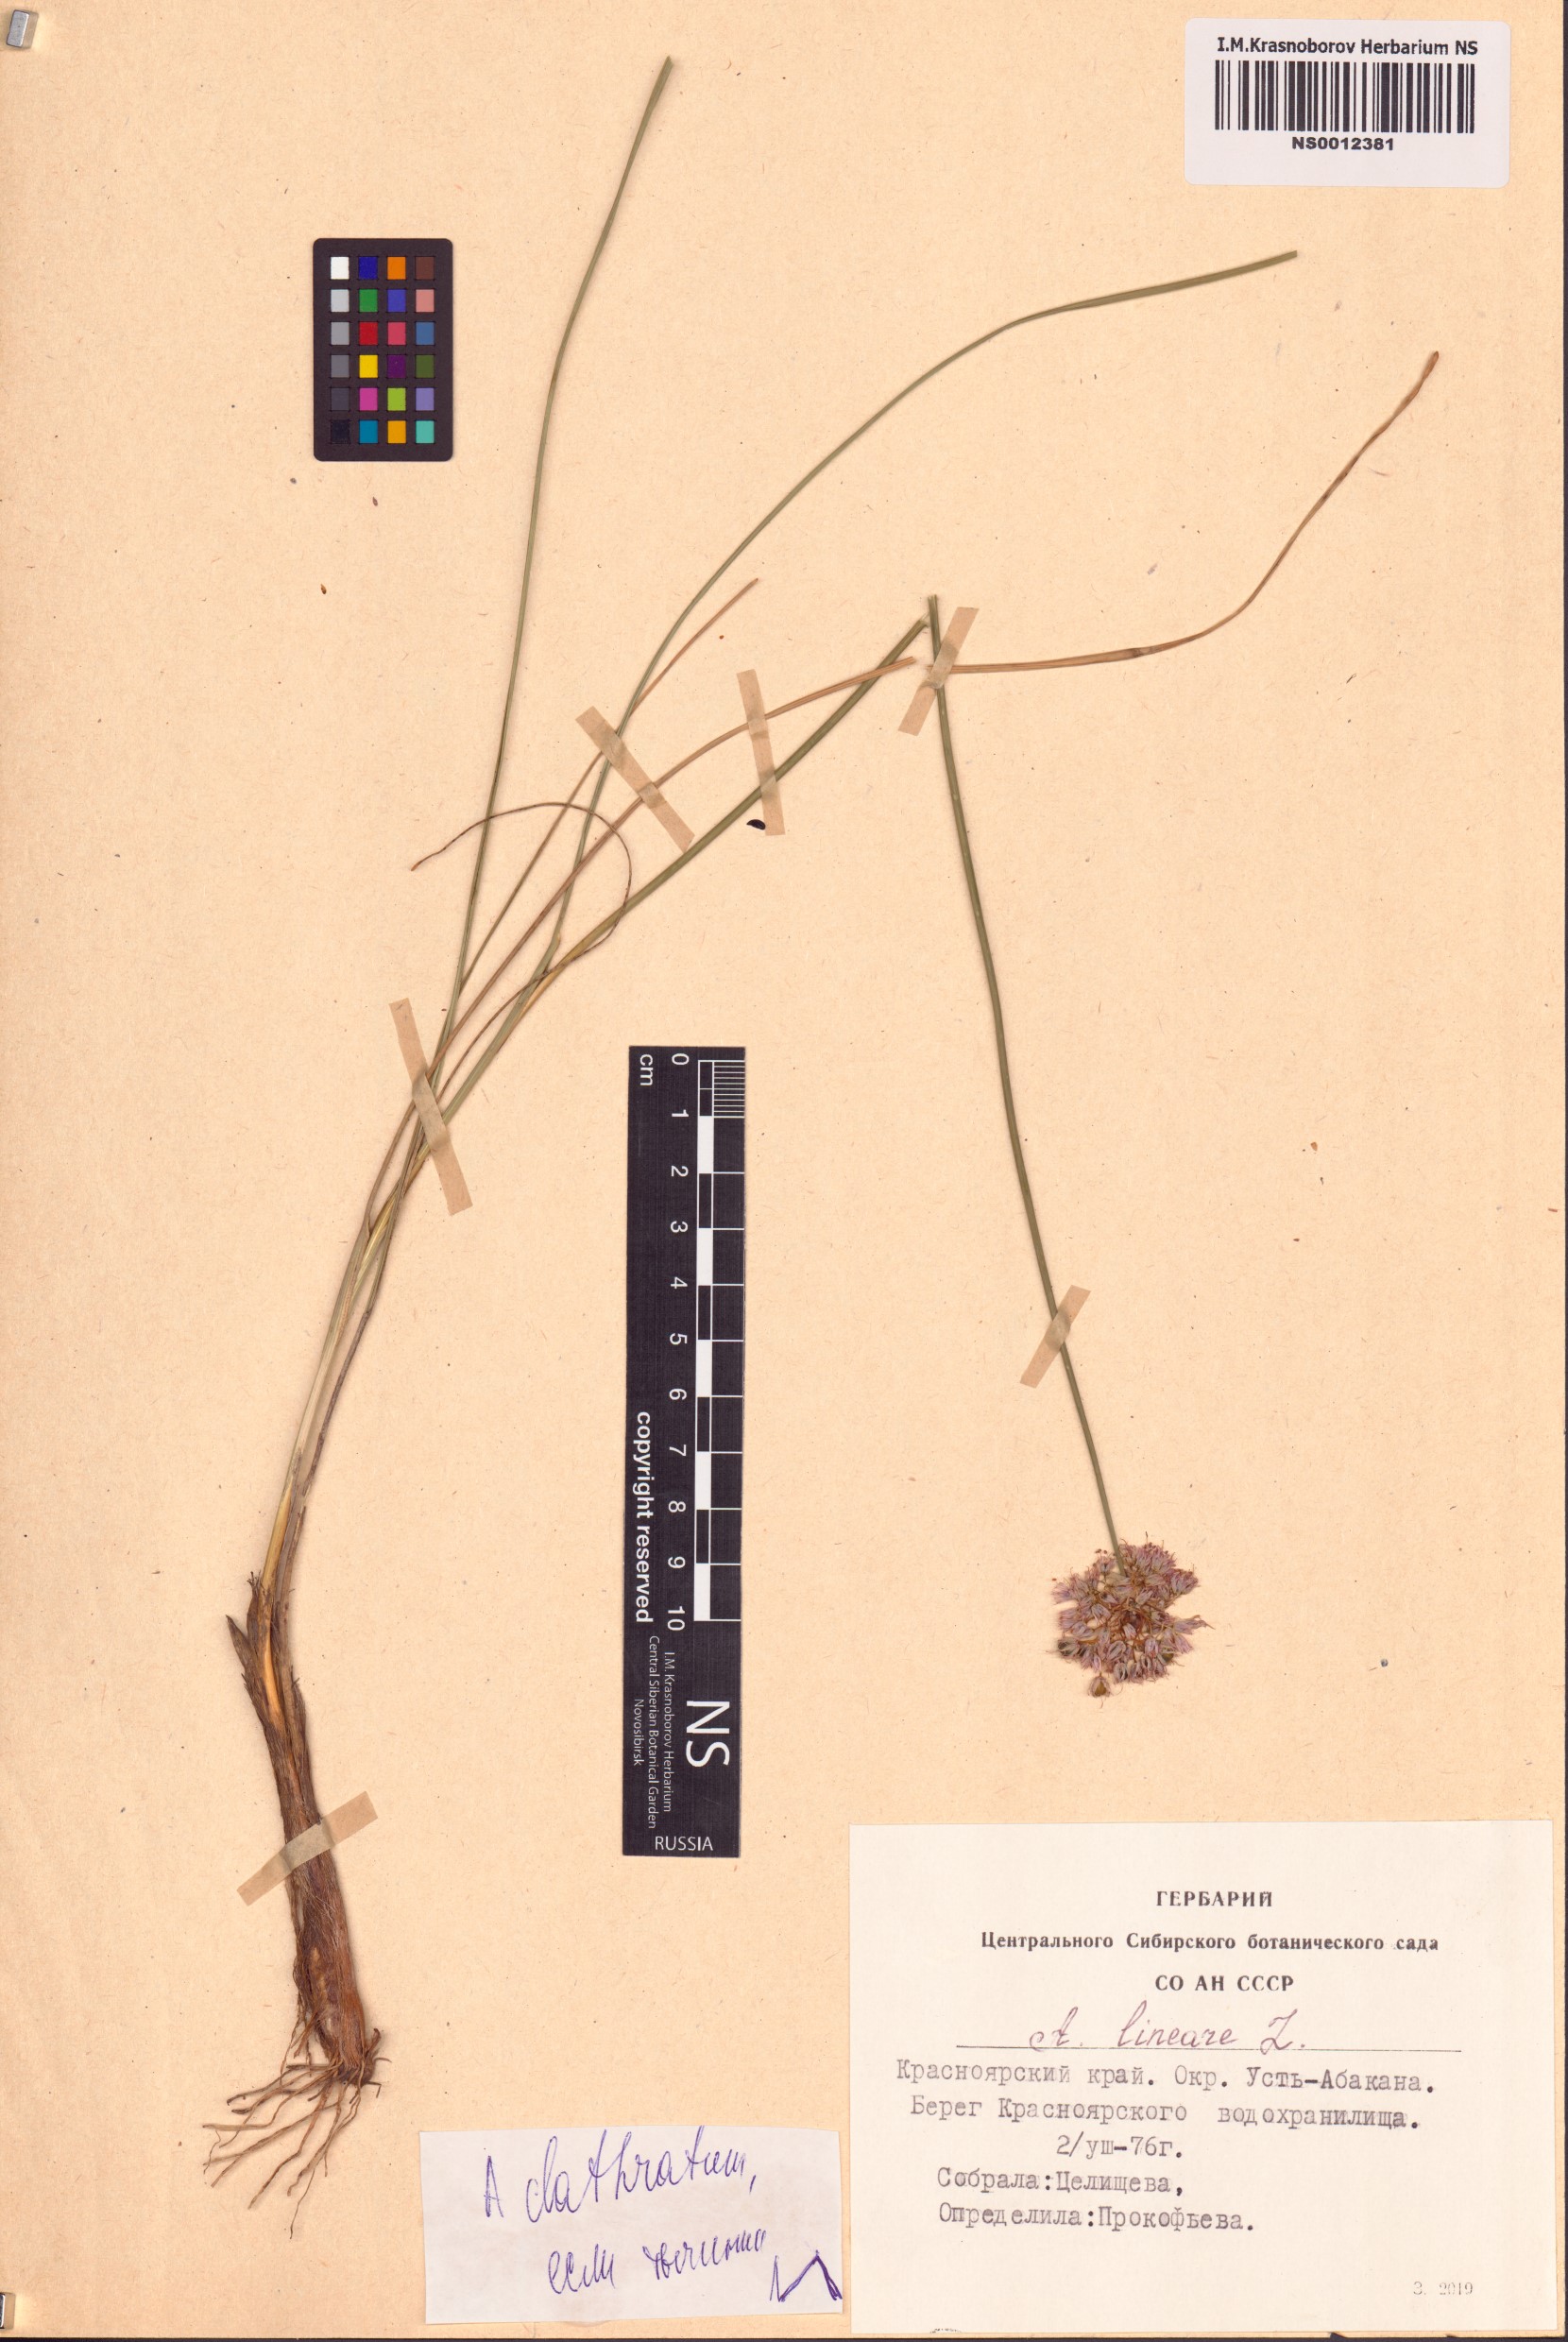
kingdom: Plantae
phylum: Tracheophyta
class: Liliopsida
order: Asparagales
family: Amaryllidaceae
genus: Allium
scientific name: Allium clathratum
